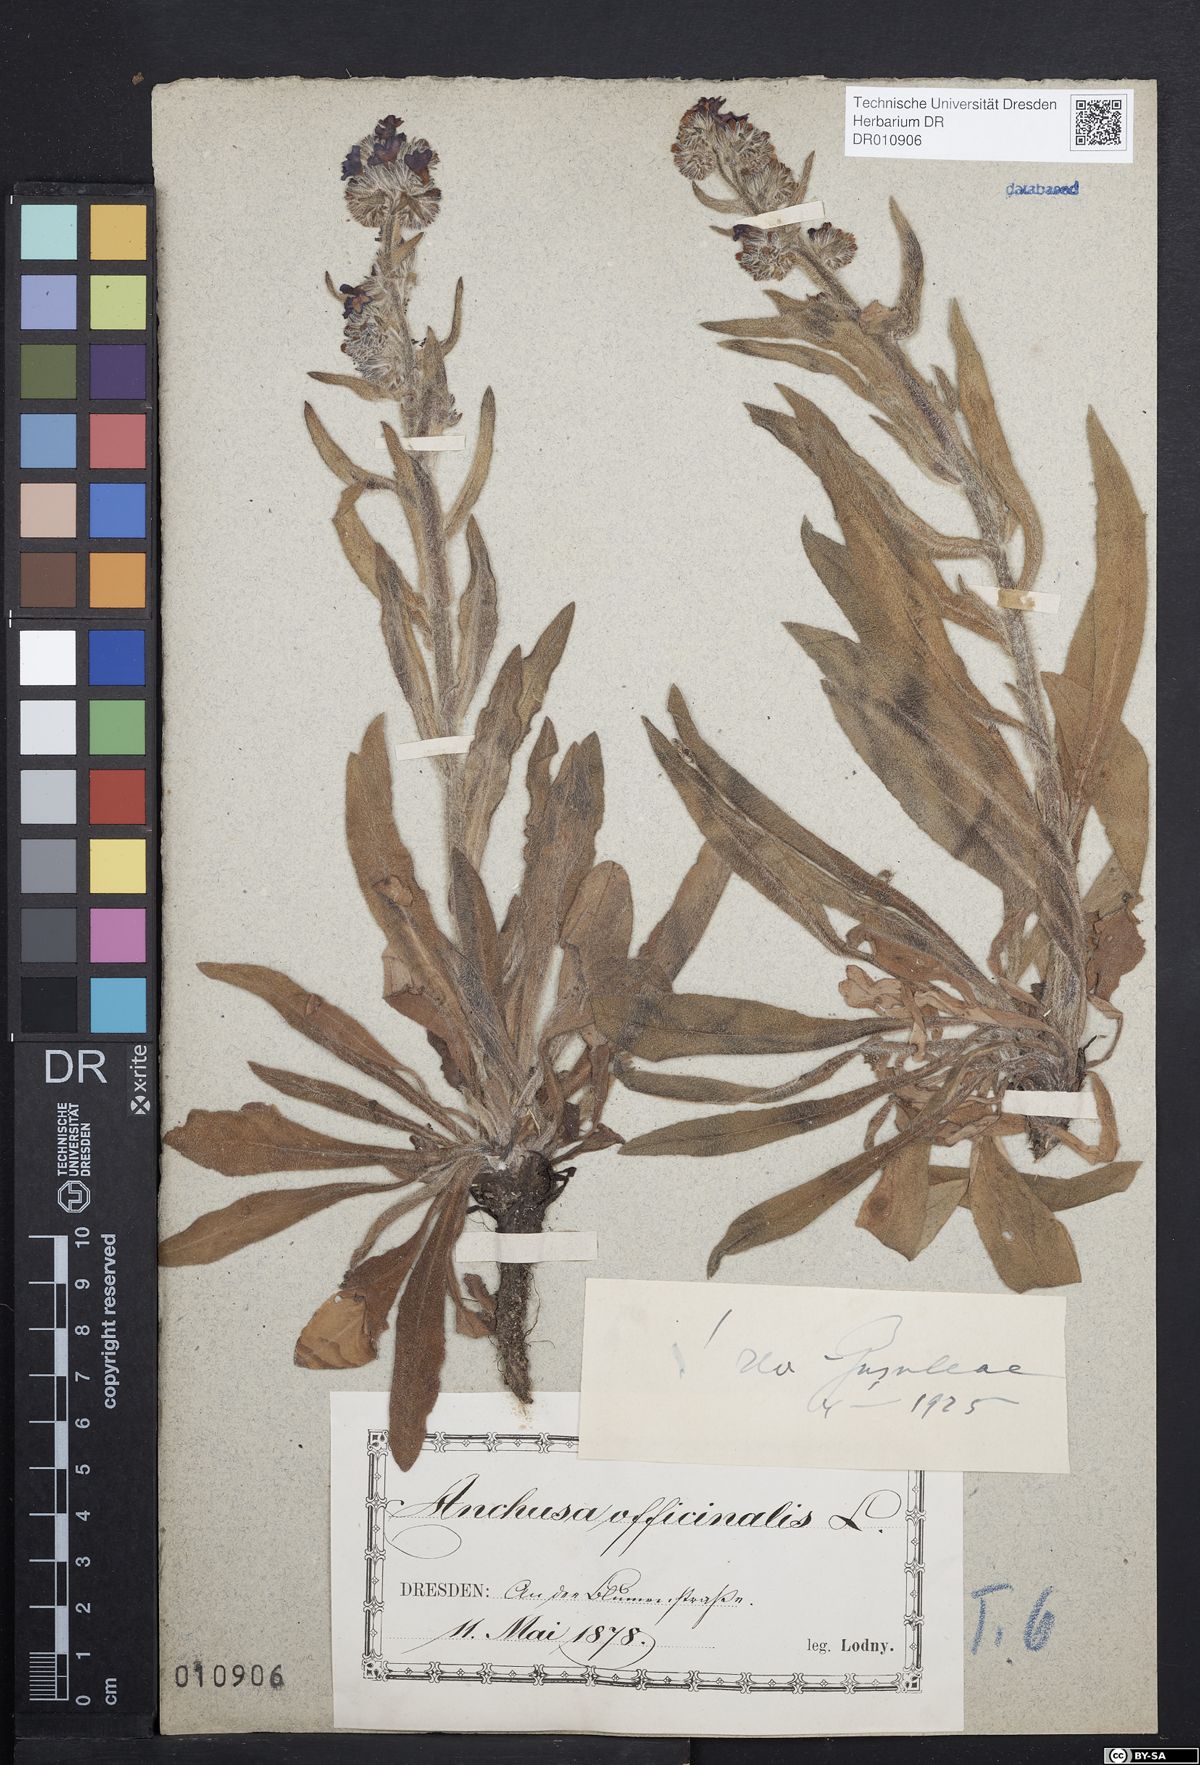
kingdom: Plantae
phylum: Tracheophyta
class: Magnoliopsida
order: Boraginales
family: Boraginaceae
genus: Anchusa
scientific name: Anchusa officinalis
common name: Alkanet
